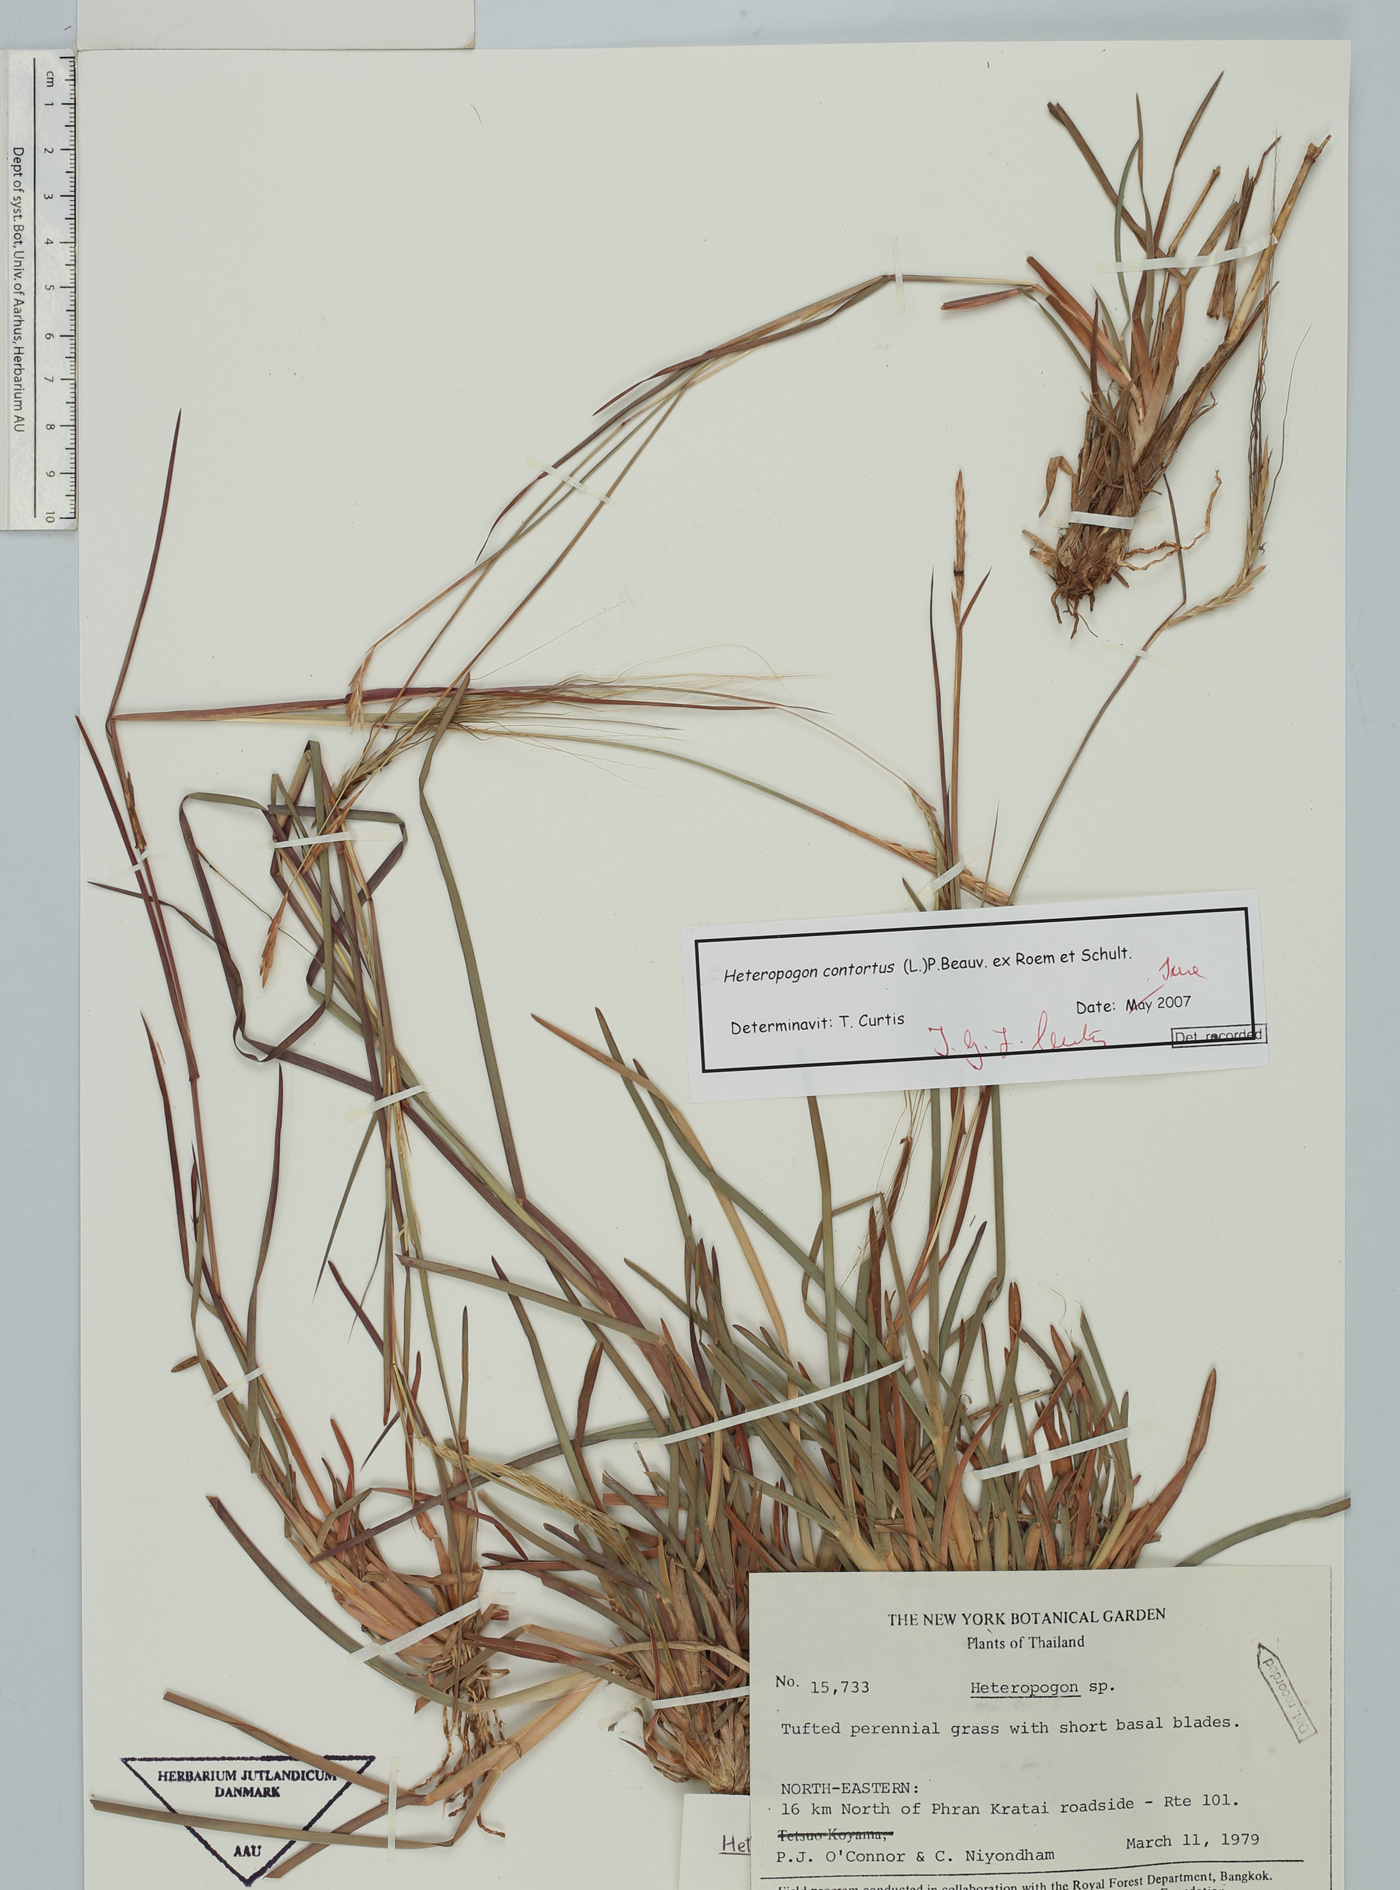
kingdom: Plantae
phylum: Tracheophyta
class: Liliopsida
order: Poales
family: Poaceae
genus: Heteropogon
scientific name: Heteropogon contortus
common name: Tanglehead
